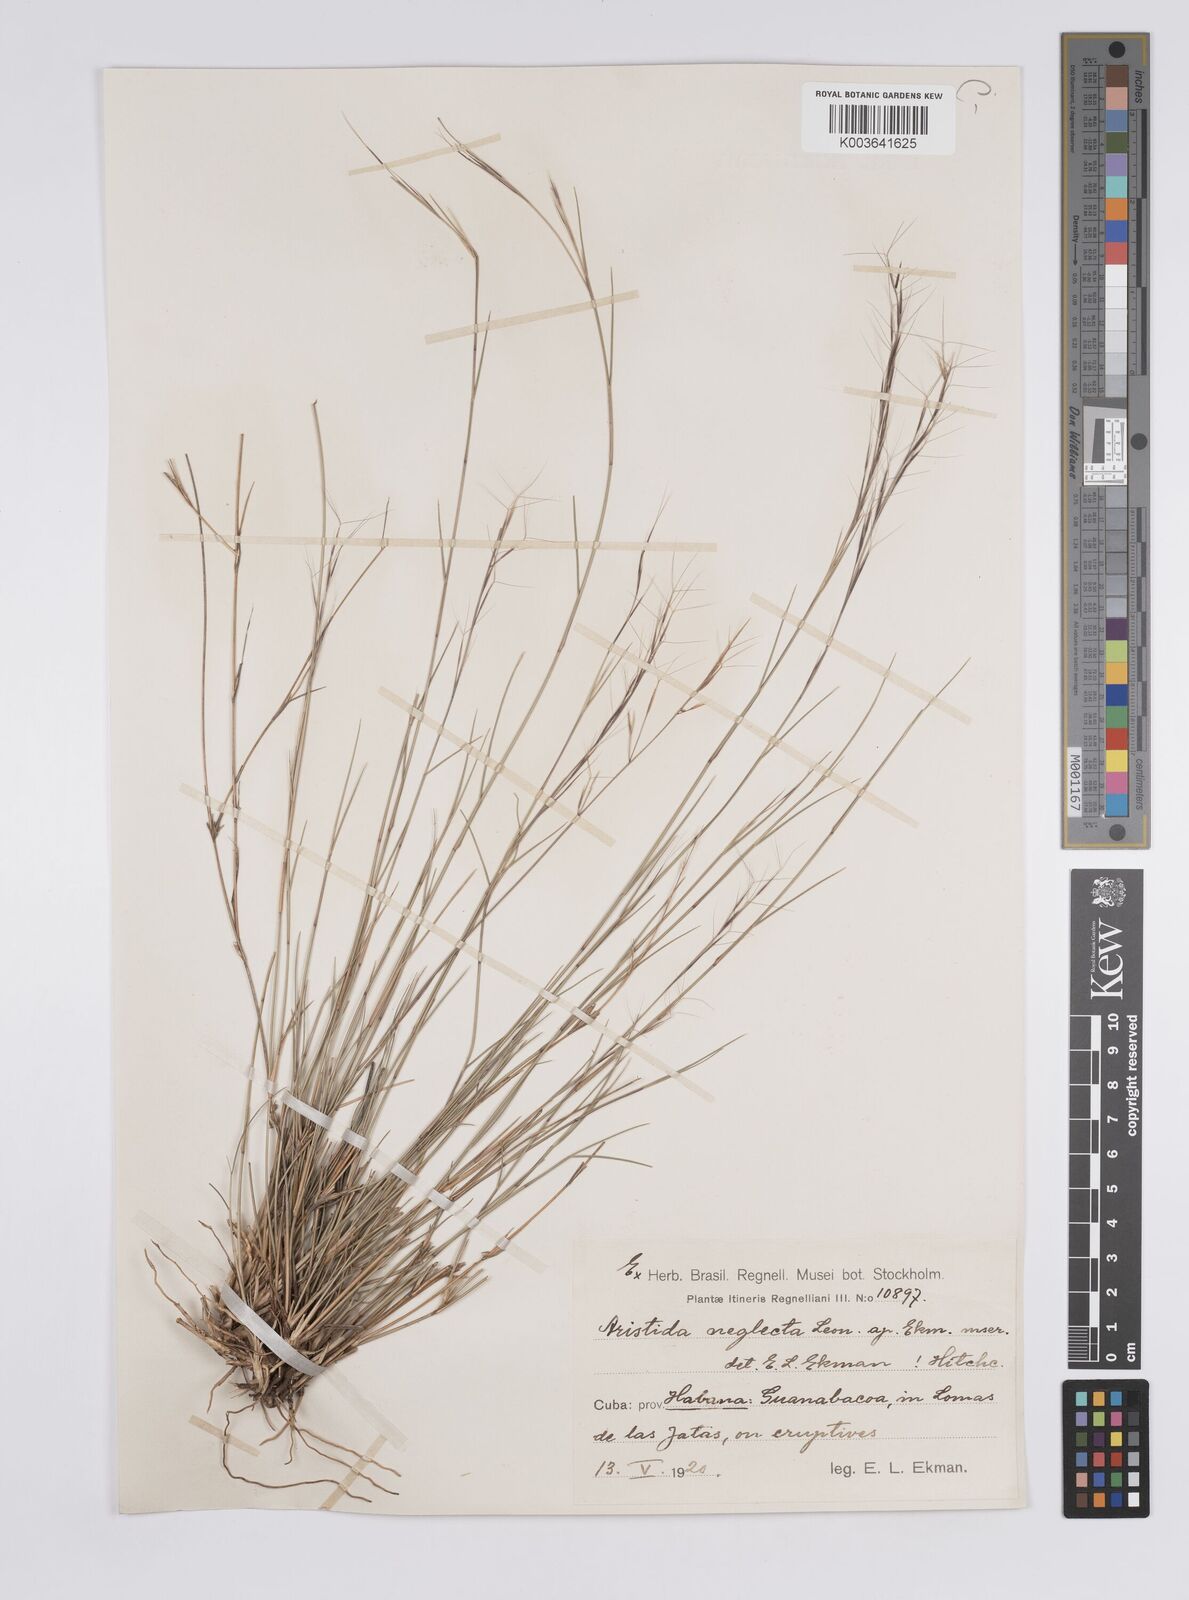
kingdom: Plantae
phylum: Tracheophyta
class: Liliopsida
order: Poales
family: Poaceae
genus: Aristida
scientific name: Aristida neglecta
